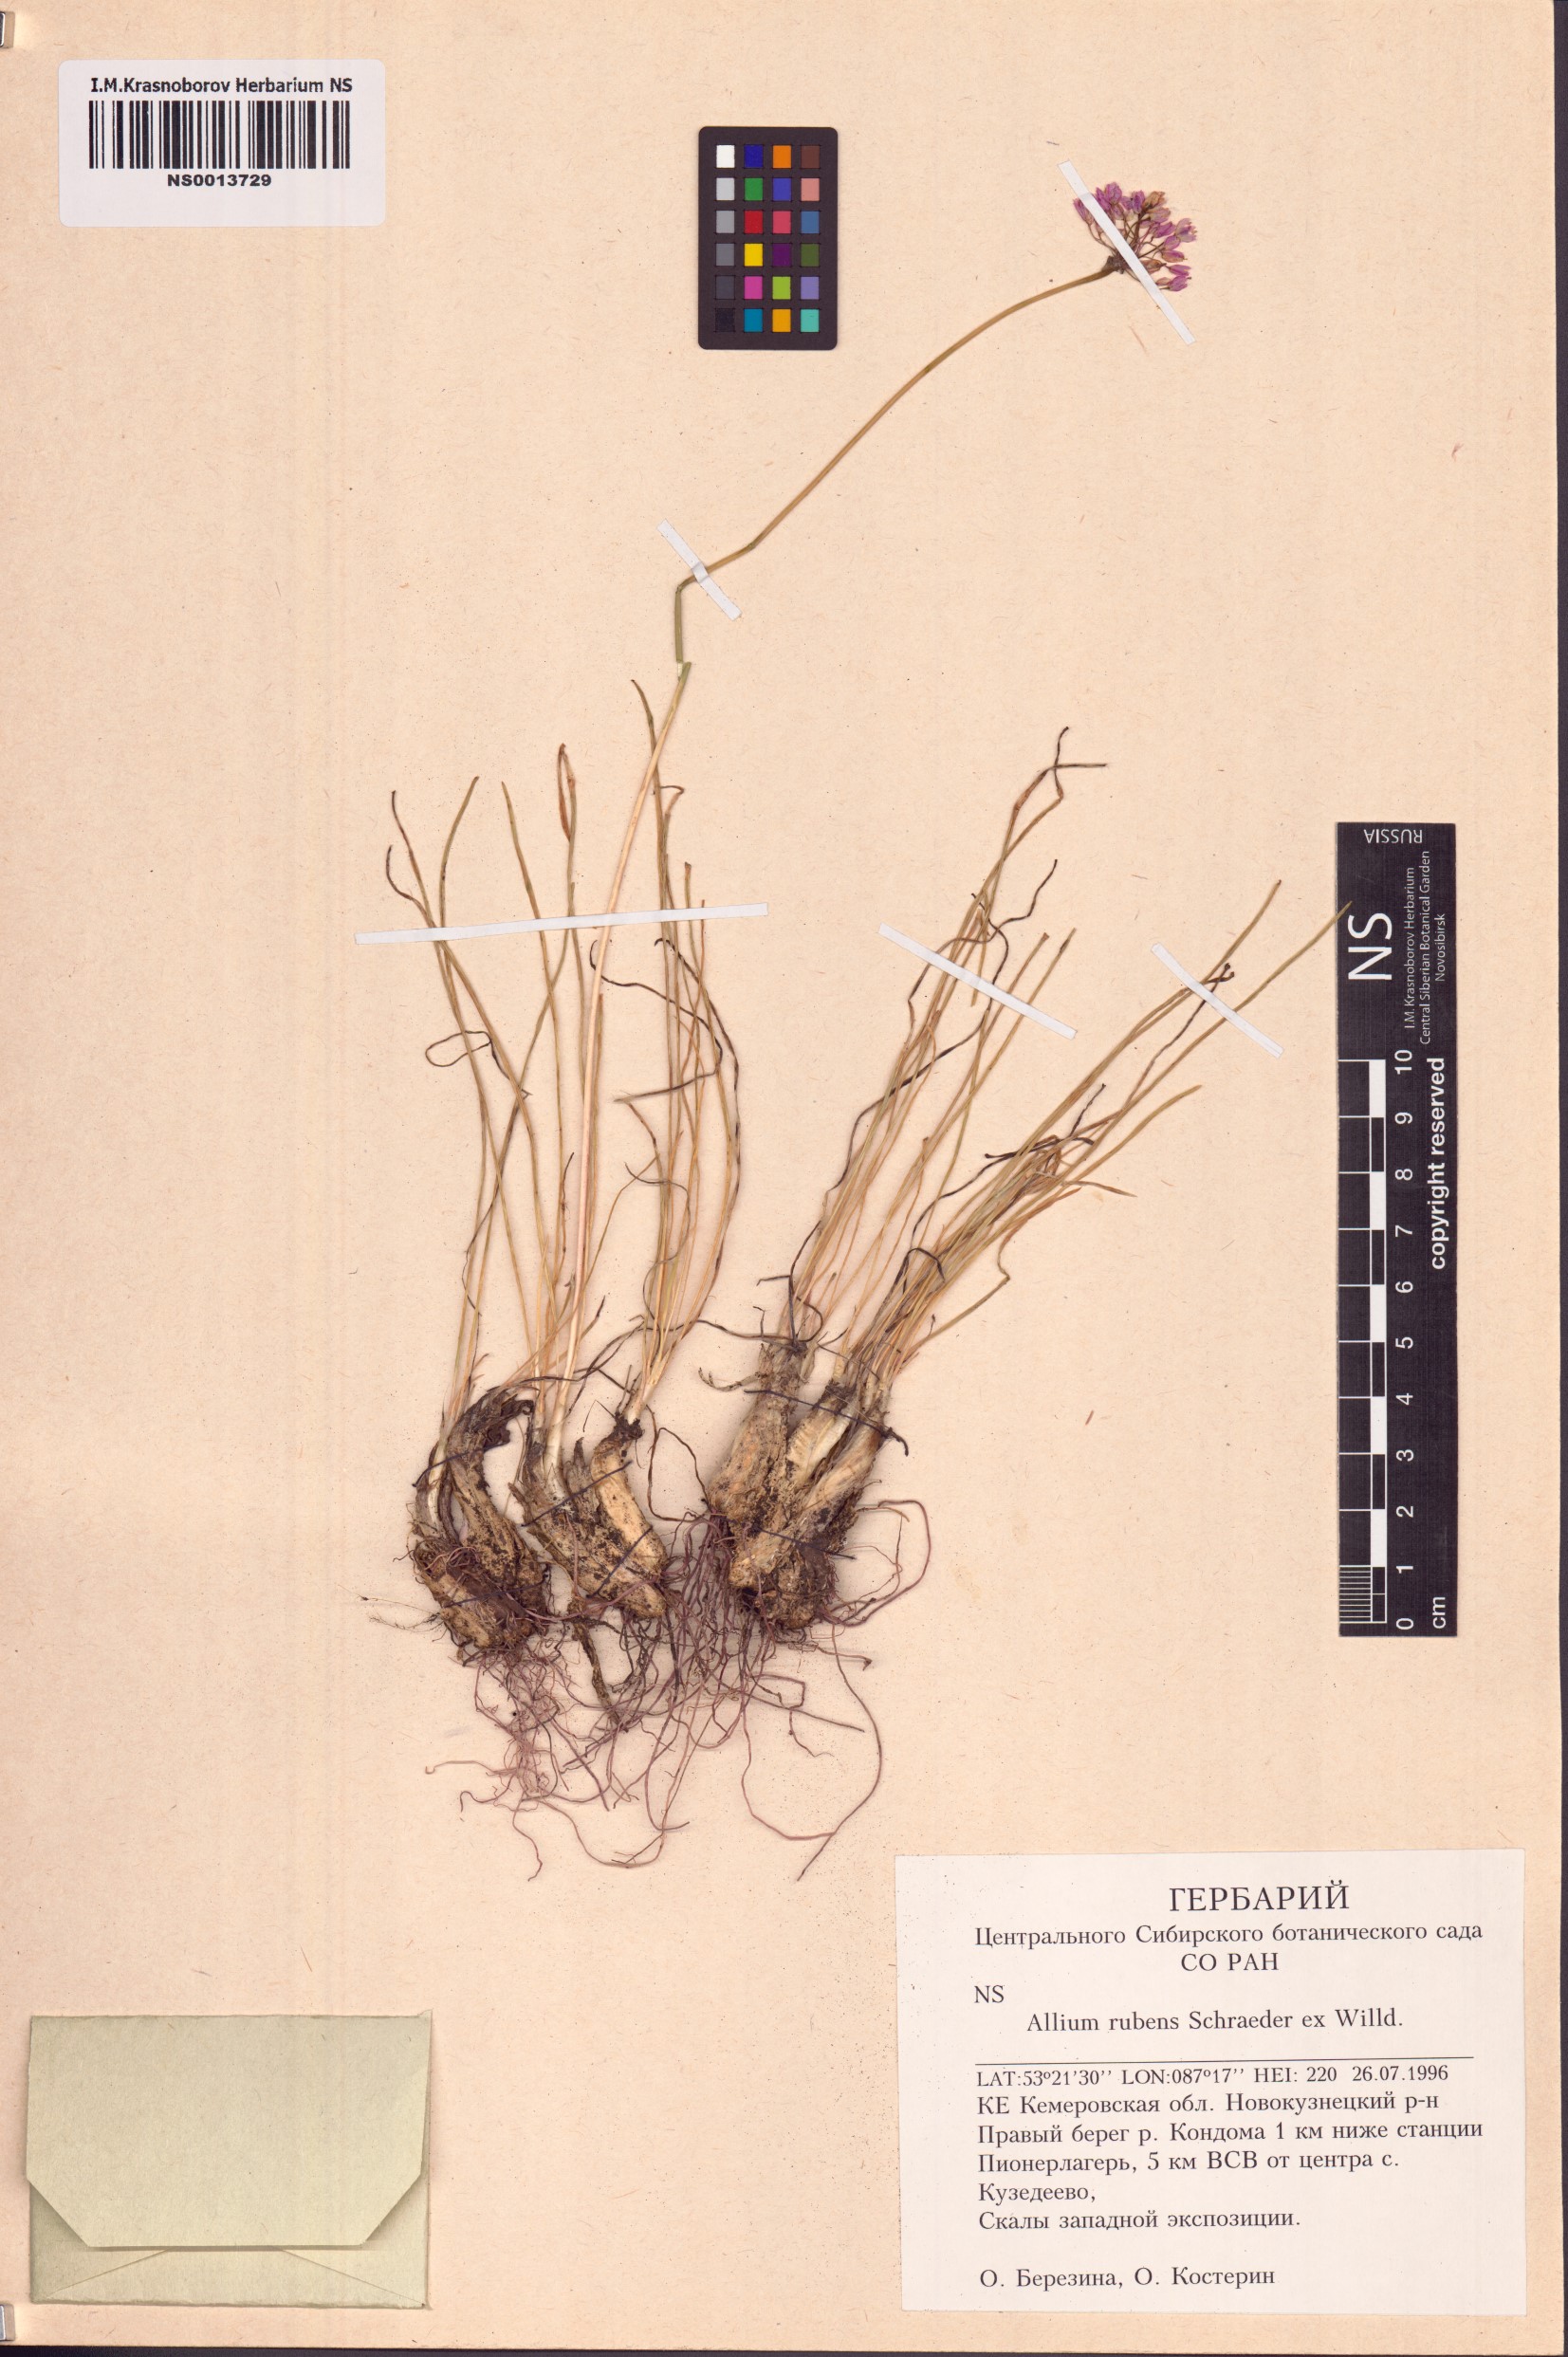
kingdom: Plantae
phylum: Tracheophyta
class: Liliopsida
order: Asparagales
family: Amaryllidaceae
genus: Allium
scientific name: Allium rubens
